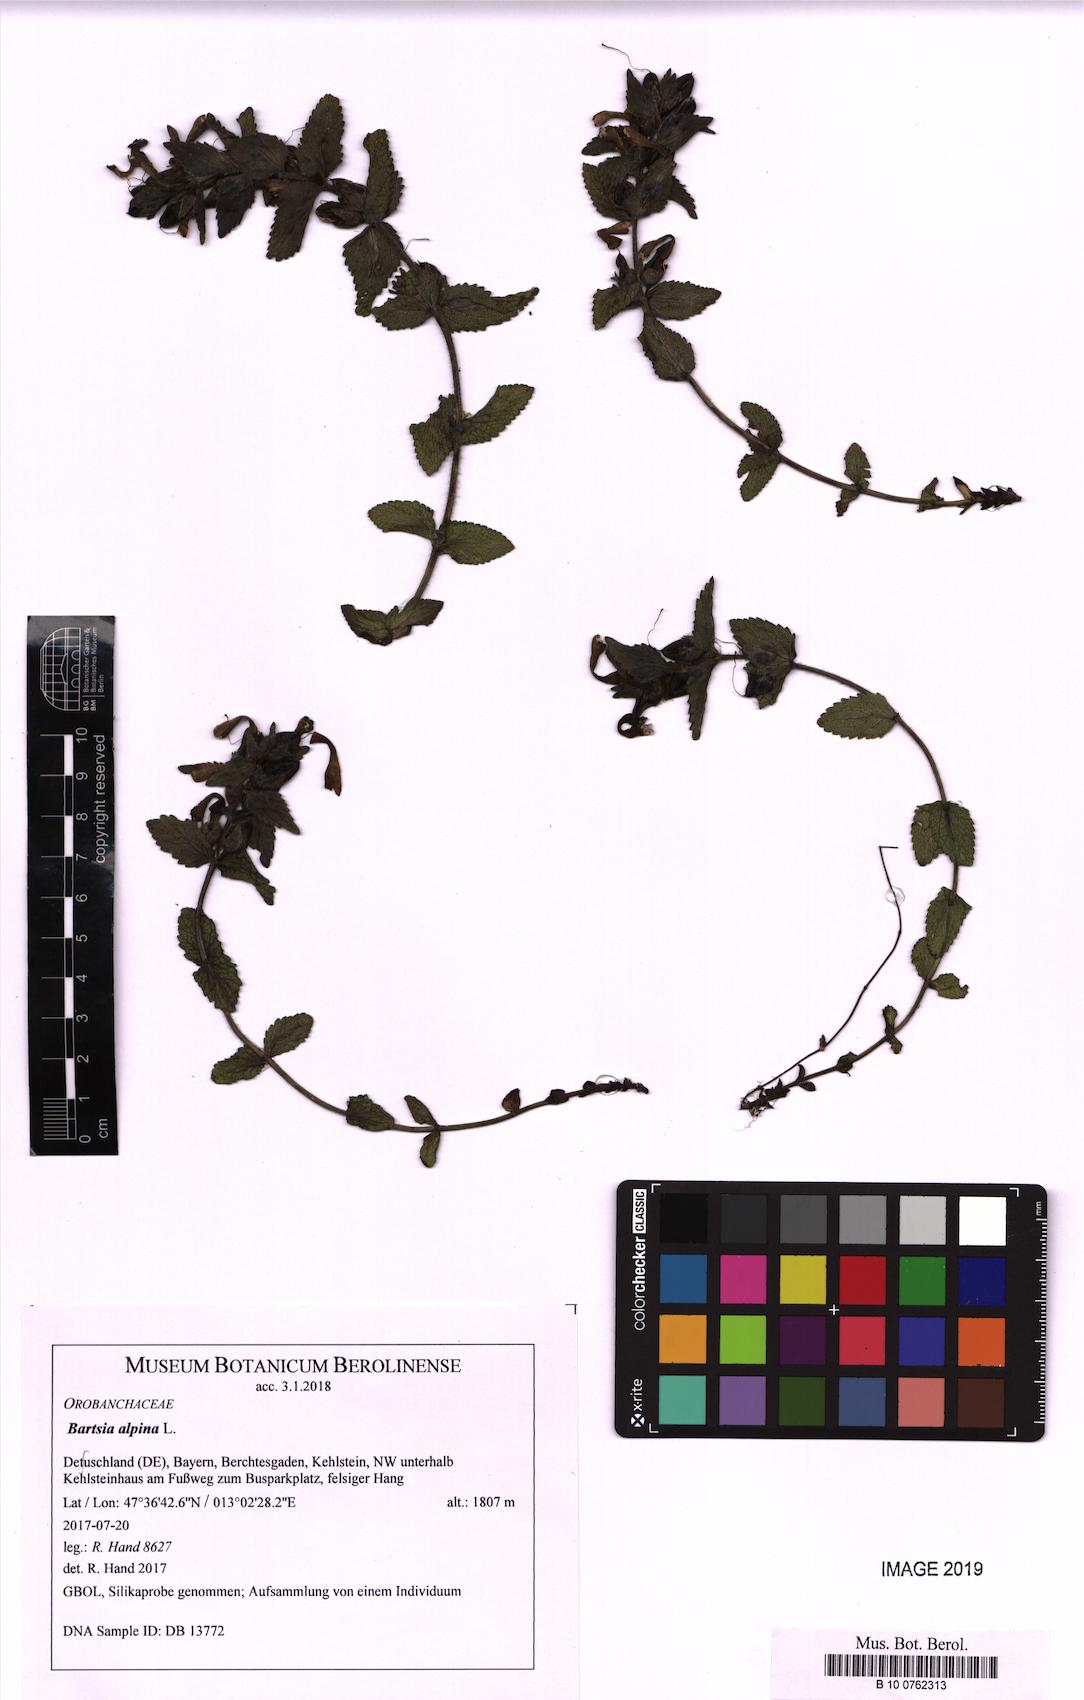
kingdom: Plantae
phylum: Tracheophyta
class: Magnoliopsida
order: Lamiales
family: Orobanchaceae
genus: Bartsia
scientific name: Bartsia alpina
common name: Alpine bartsia
